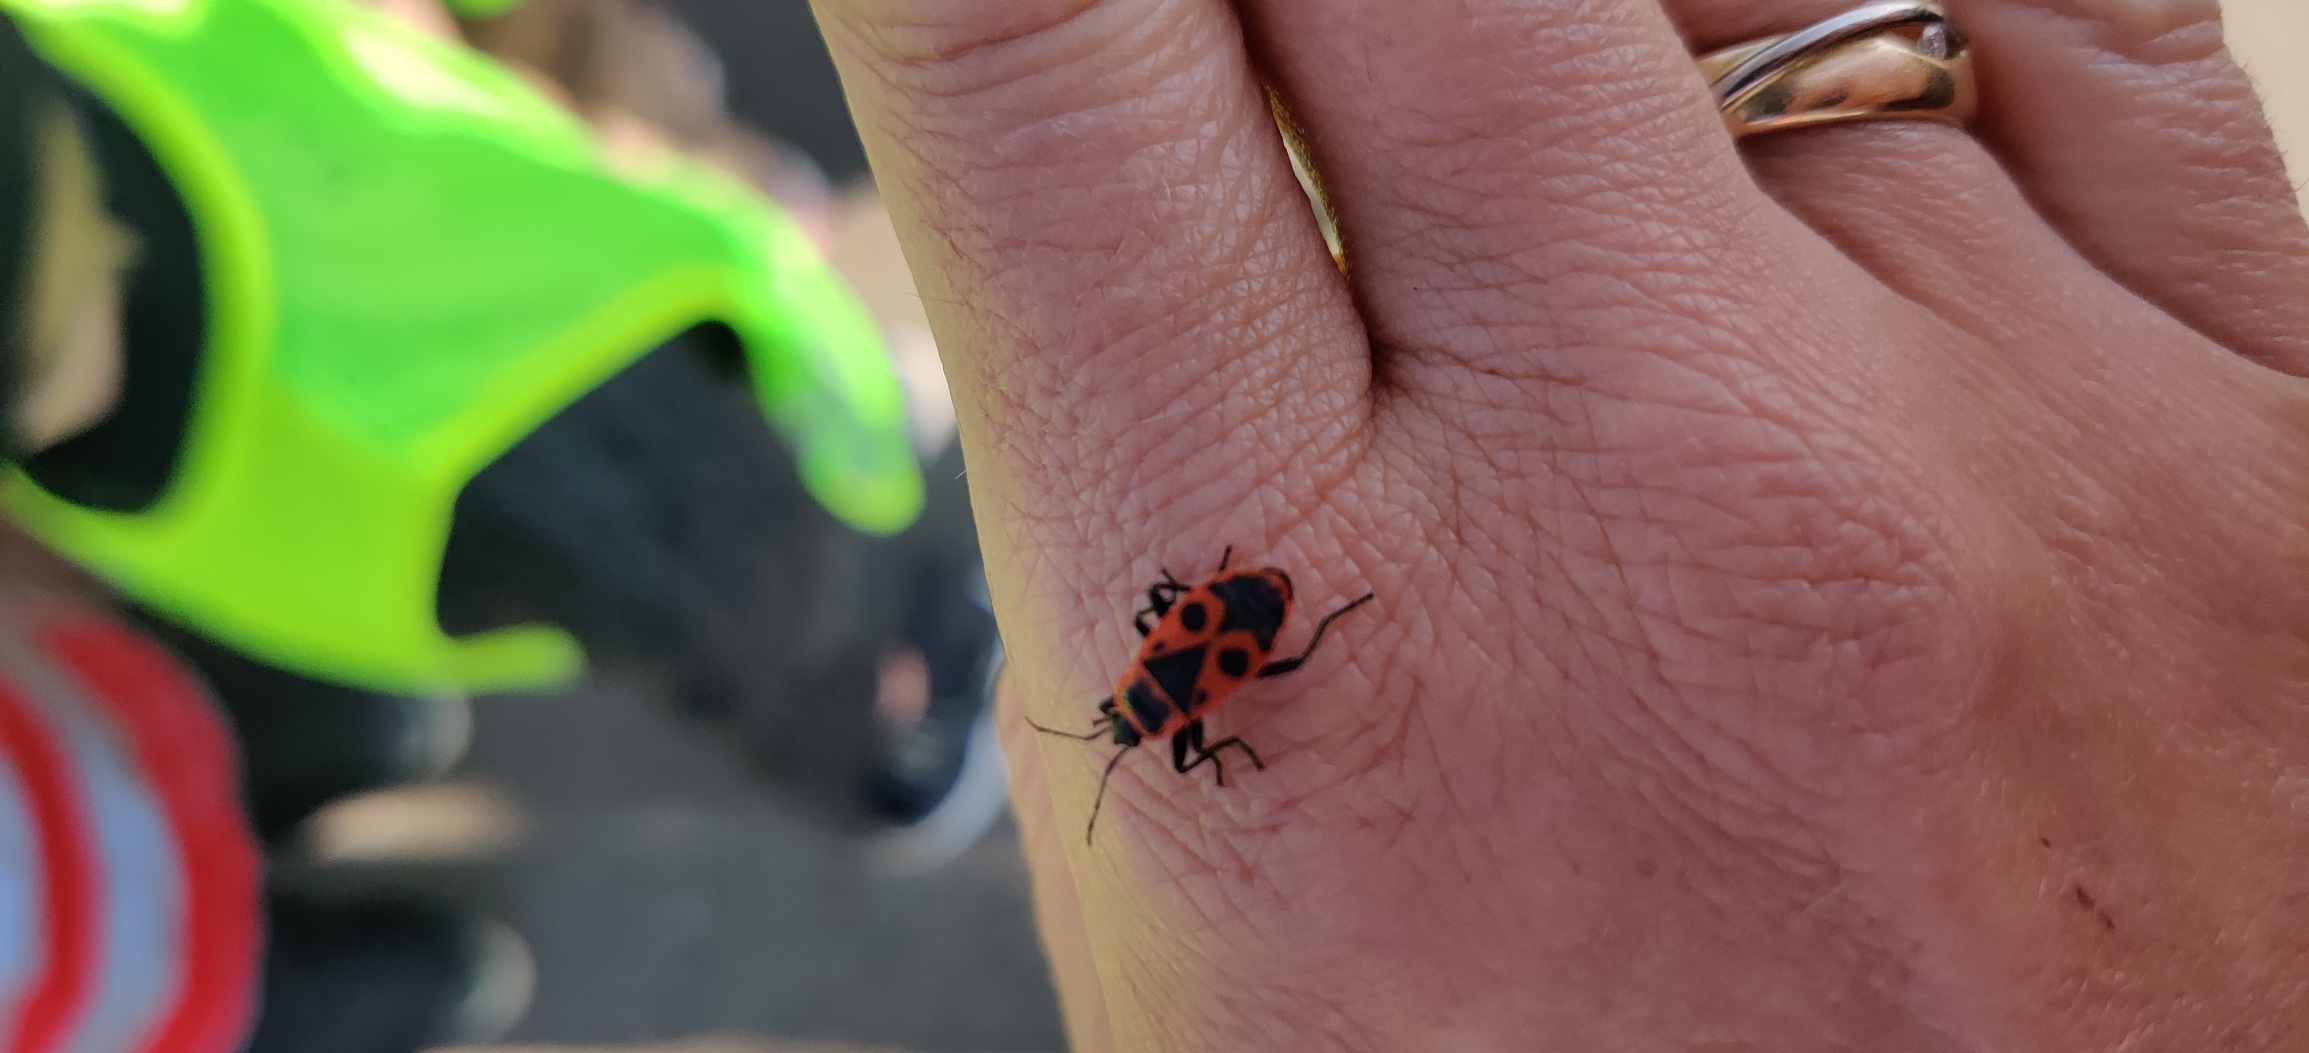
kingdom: Animalia
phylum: Arthropoda
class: Insecta
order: Hemiptera
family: Pyrrhocoridae
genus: Pyrrhocoris
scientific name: Pyrrhocoris apterus
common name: Ildtæge
